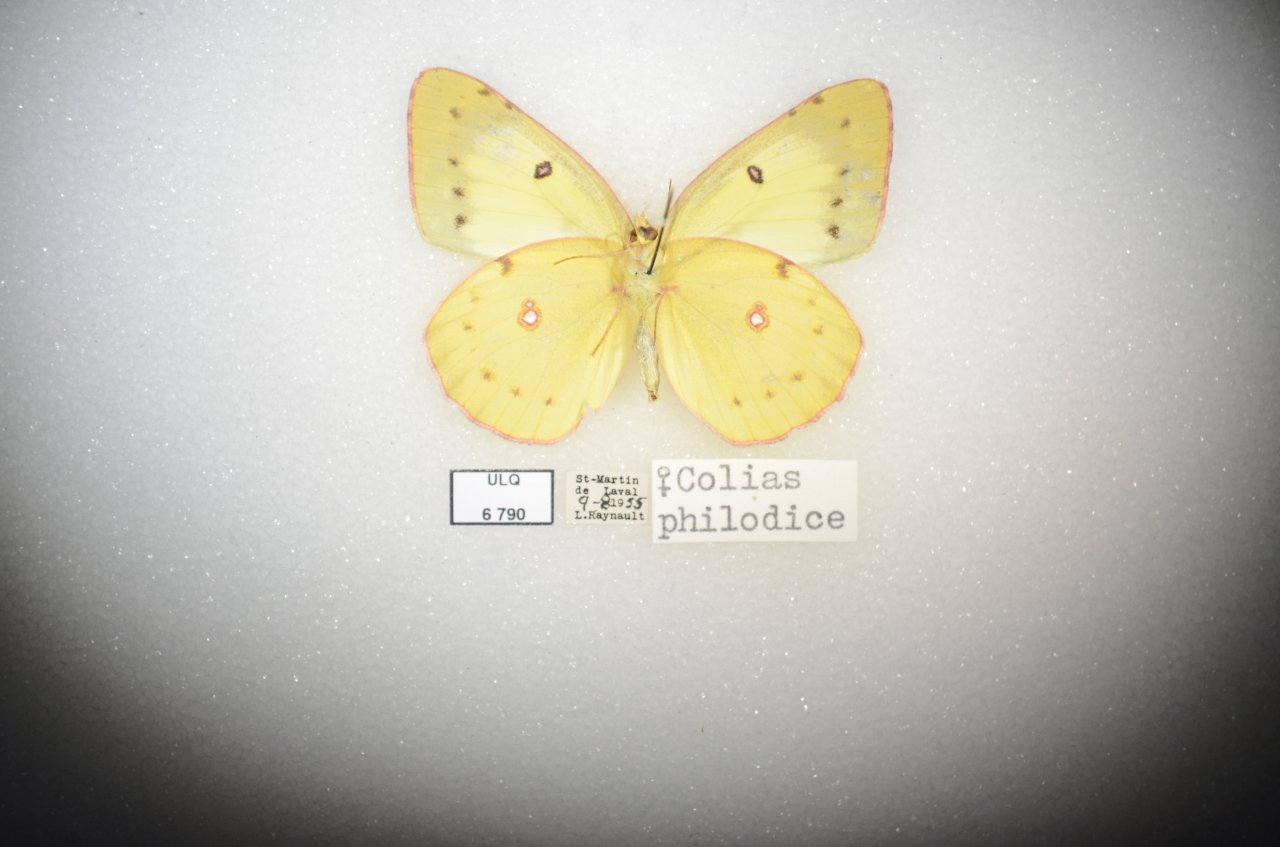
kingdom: Animalia
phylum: Arthropoda
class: Insecta
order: Lepidoptera
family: Pieridae
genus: Colias
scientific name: Colias philodice
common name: Clouded Sulphur
